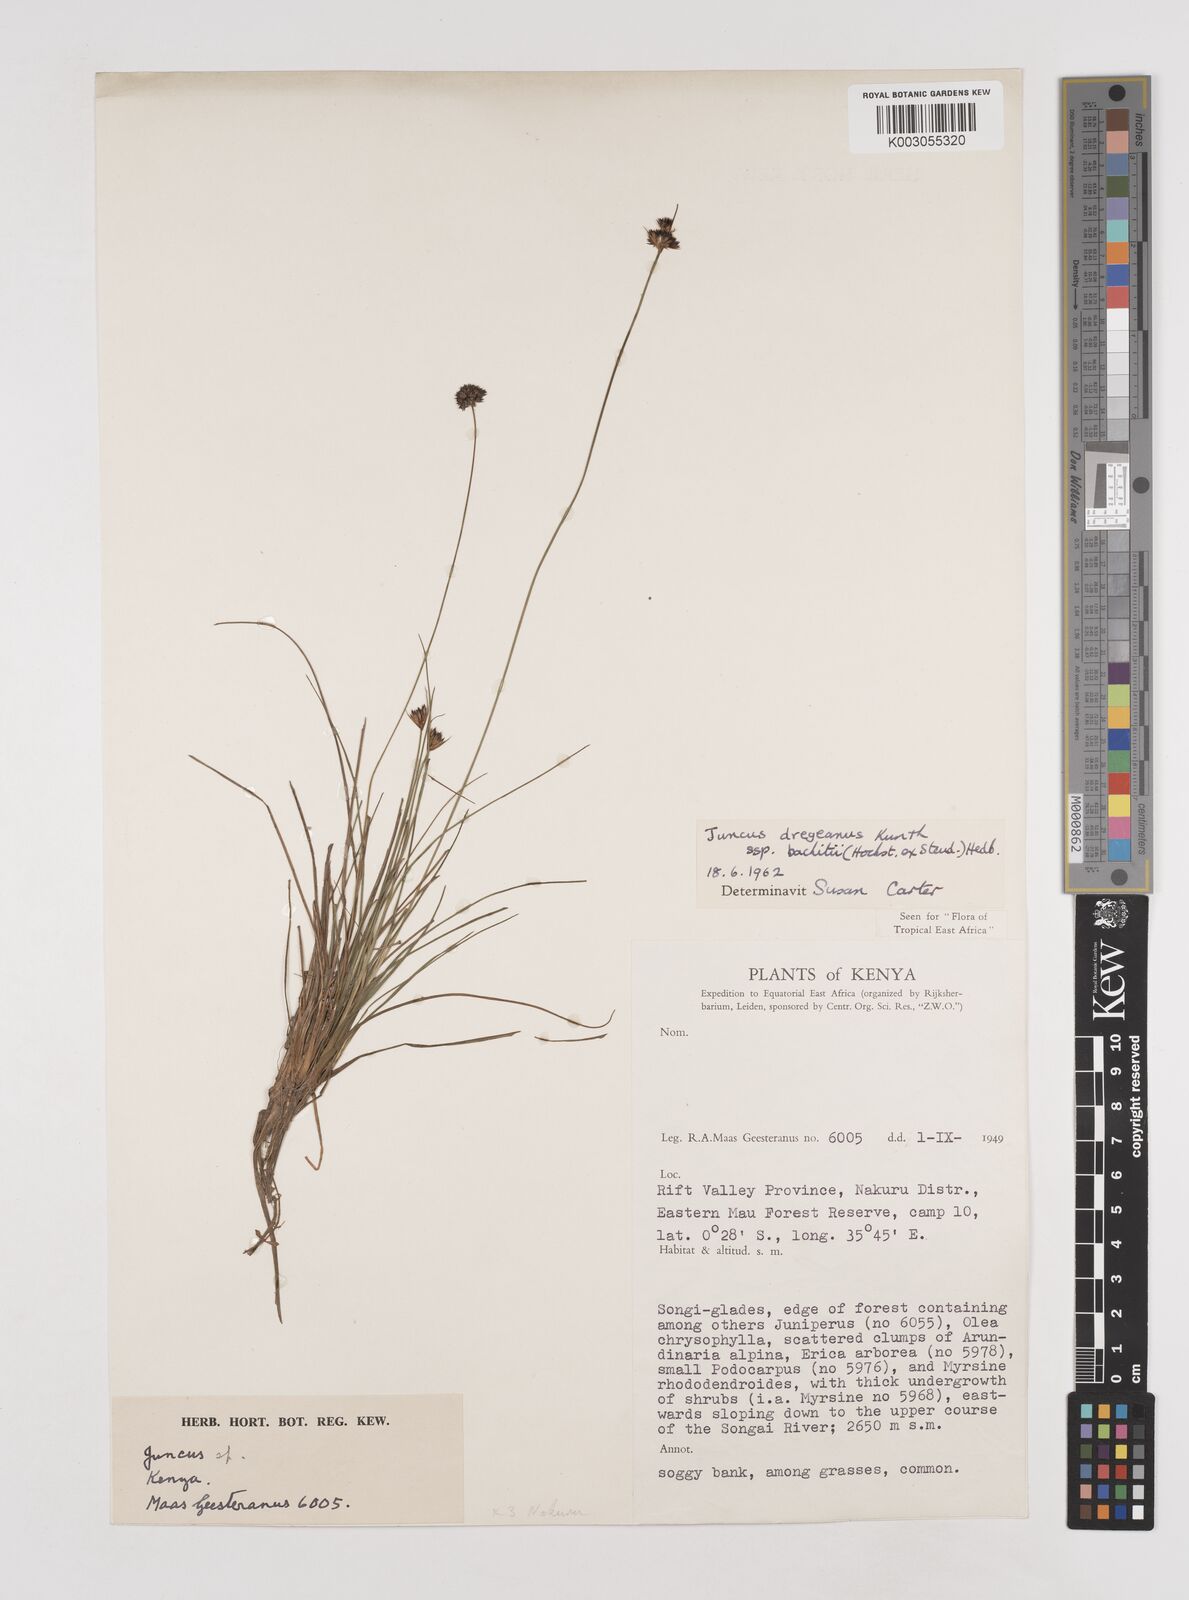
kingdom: Plantae
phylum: Tracheophyta
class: Liliopsida
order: Poales
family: Juncaceae
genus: Juncus
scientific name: Juncus dregeanus
